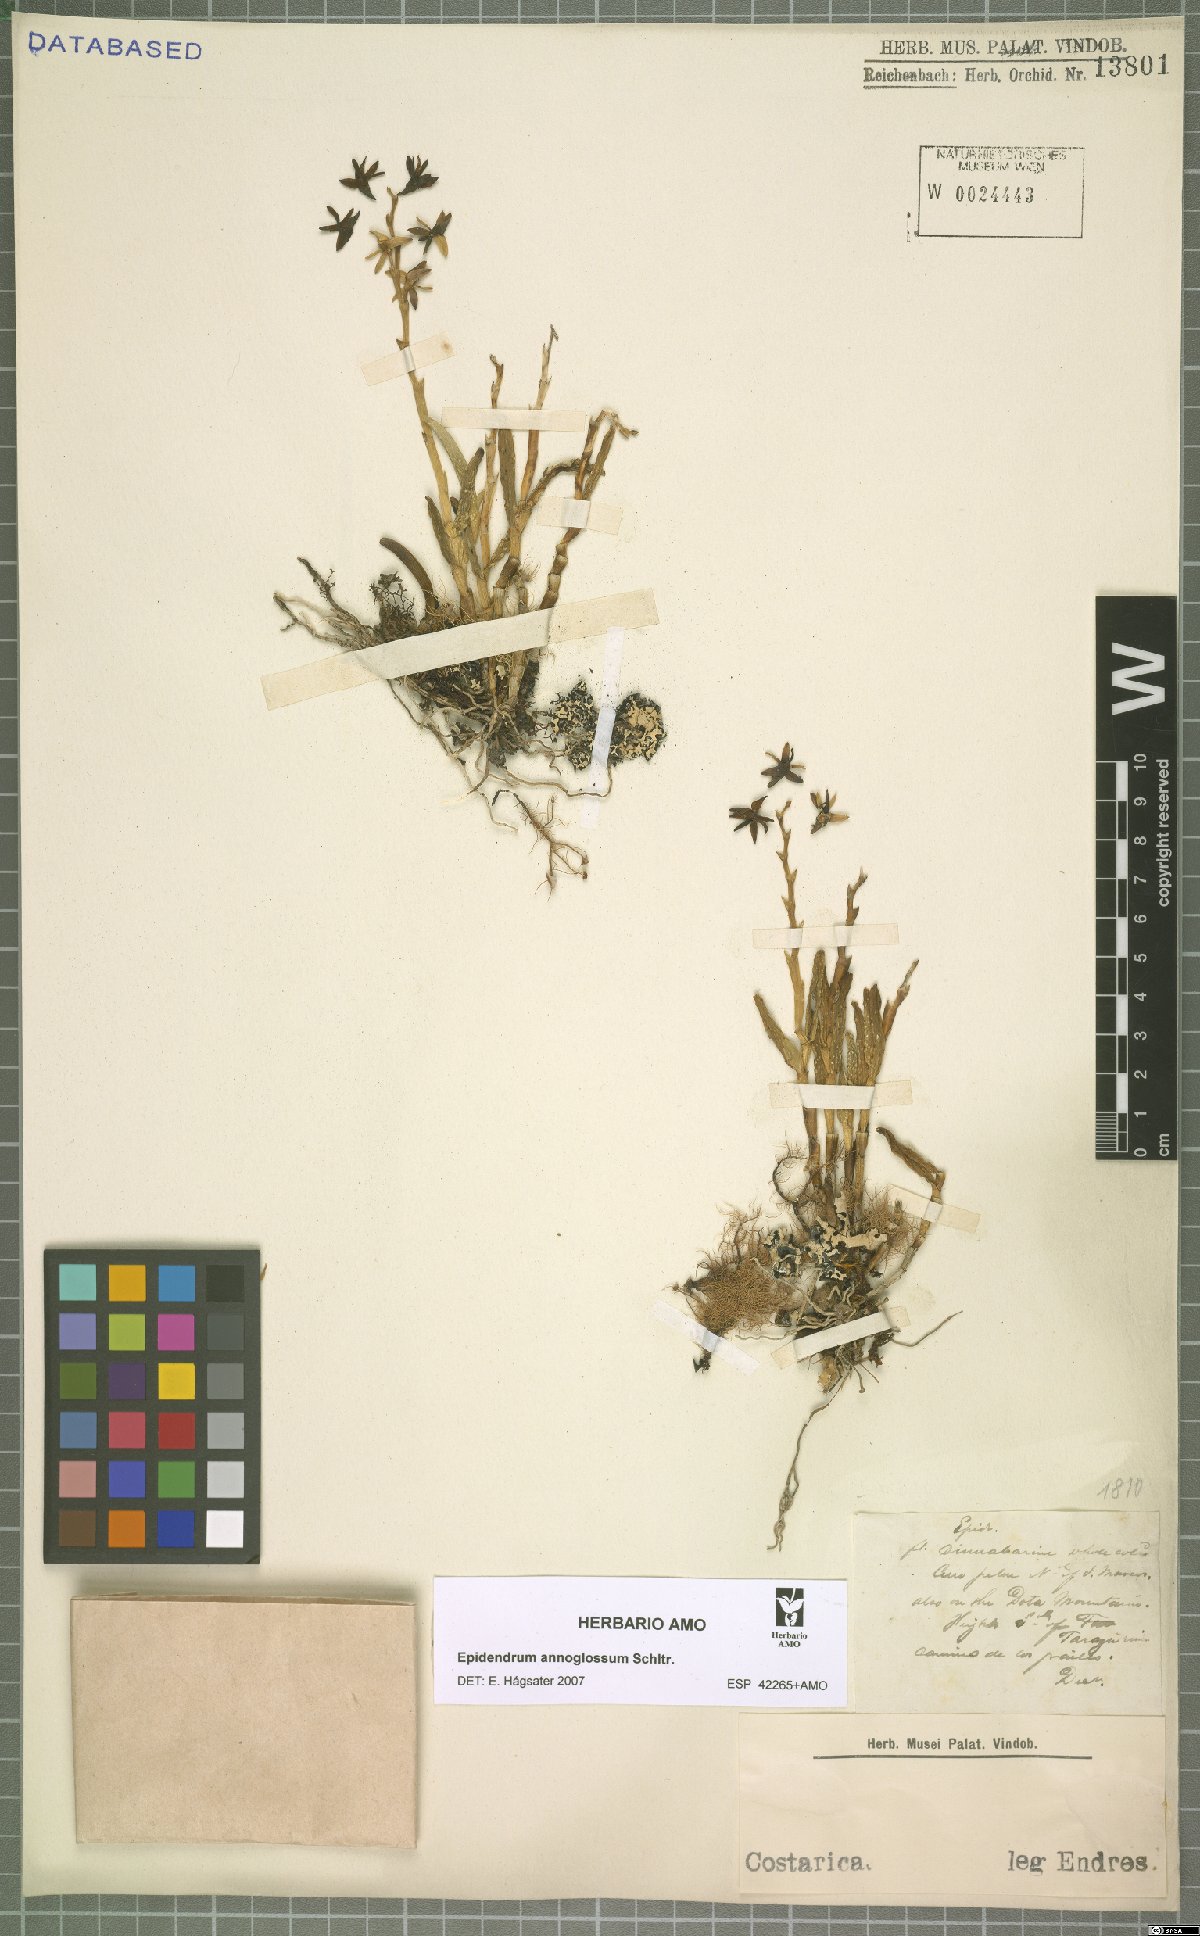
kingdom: Plantae
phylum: Tracheophyta
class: Liliopsida
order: Asparagales
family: Orchidaceae
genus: Epidendrum
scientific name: Epidendrum anoglossum
